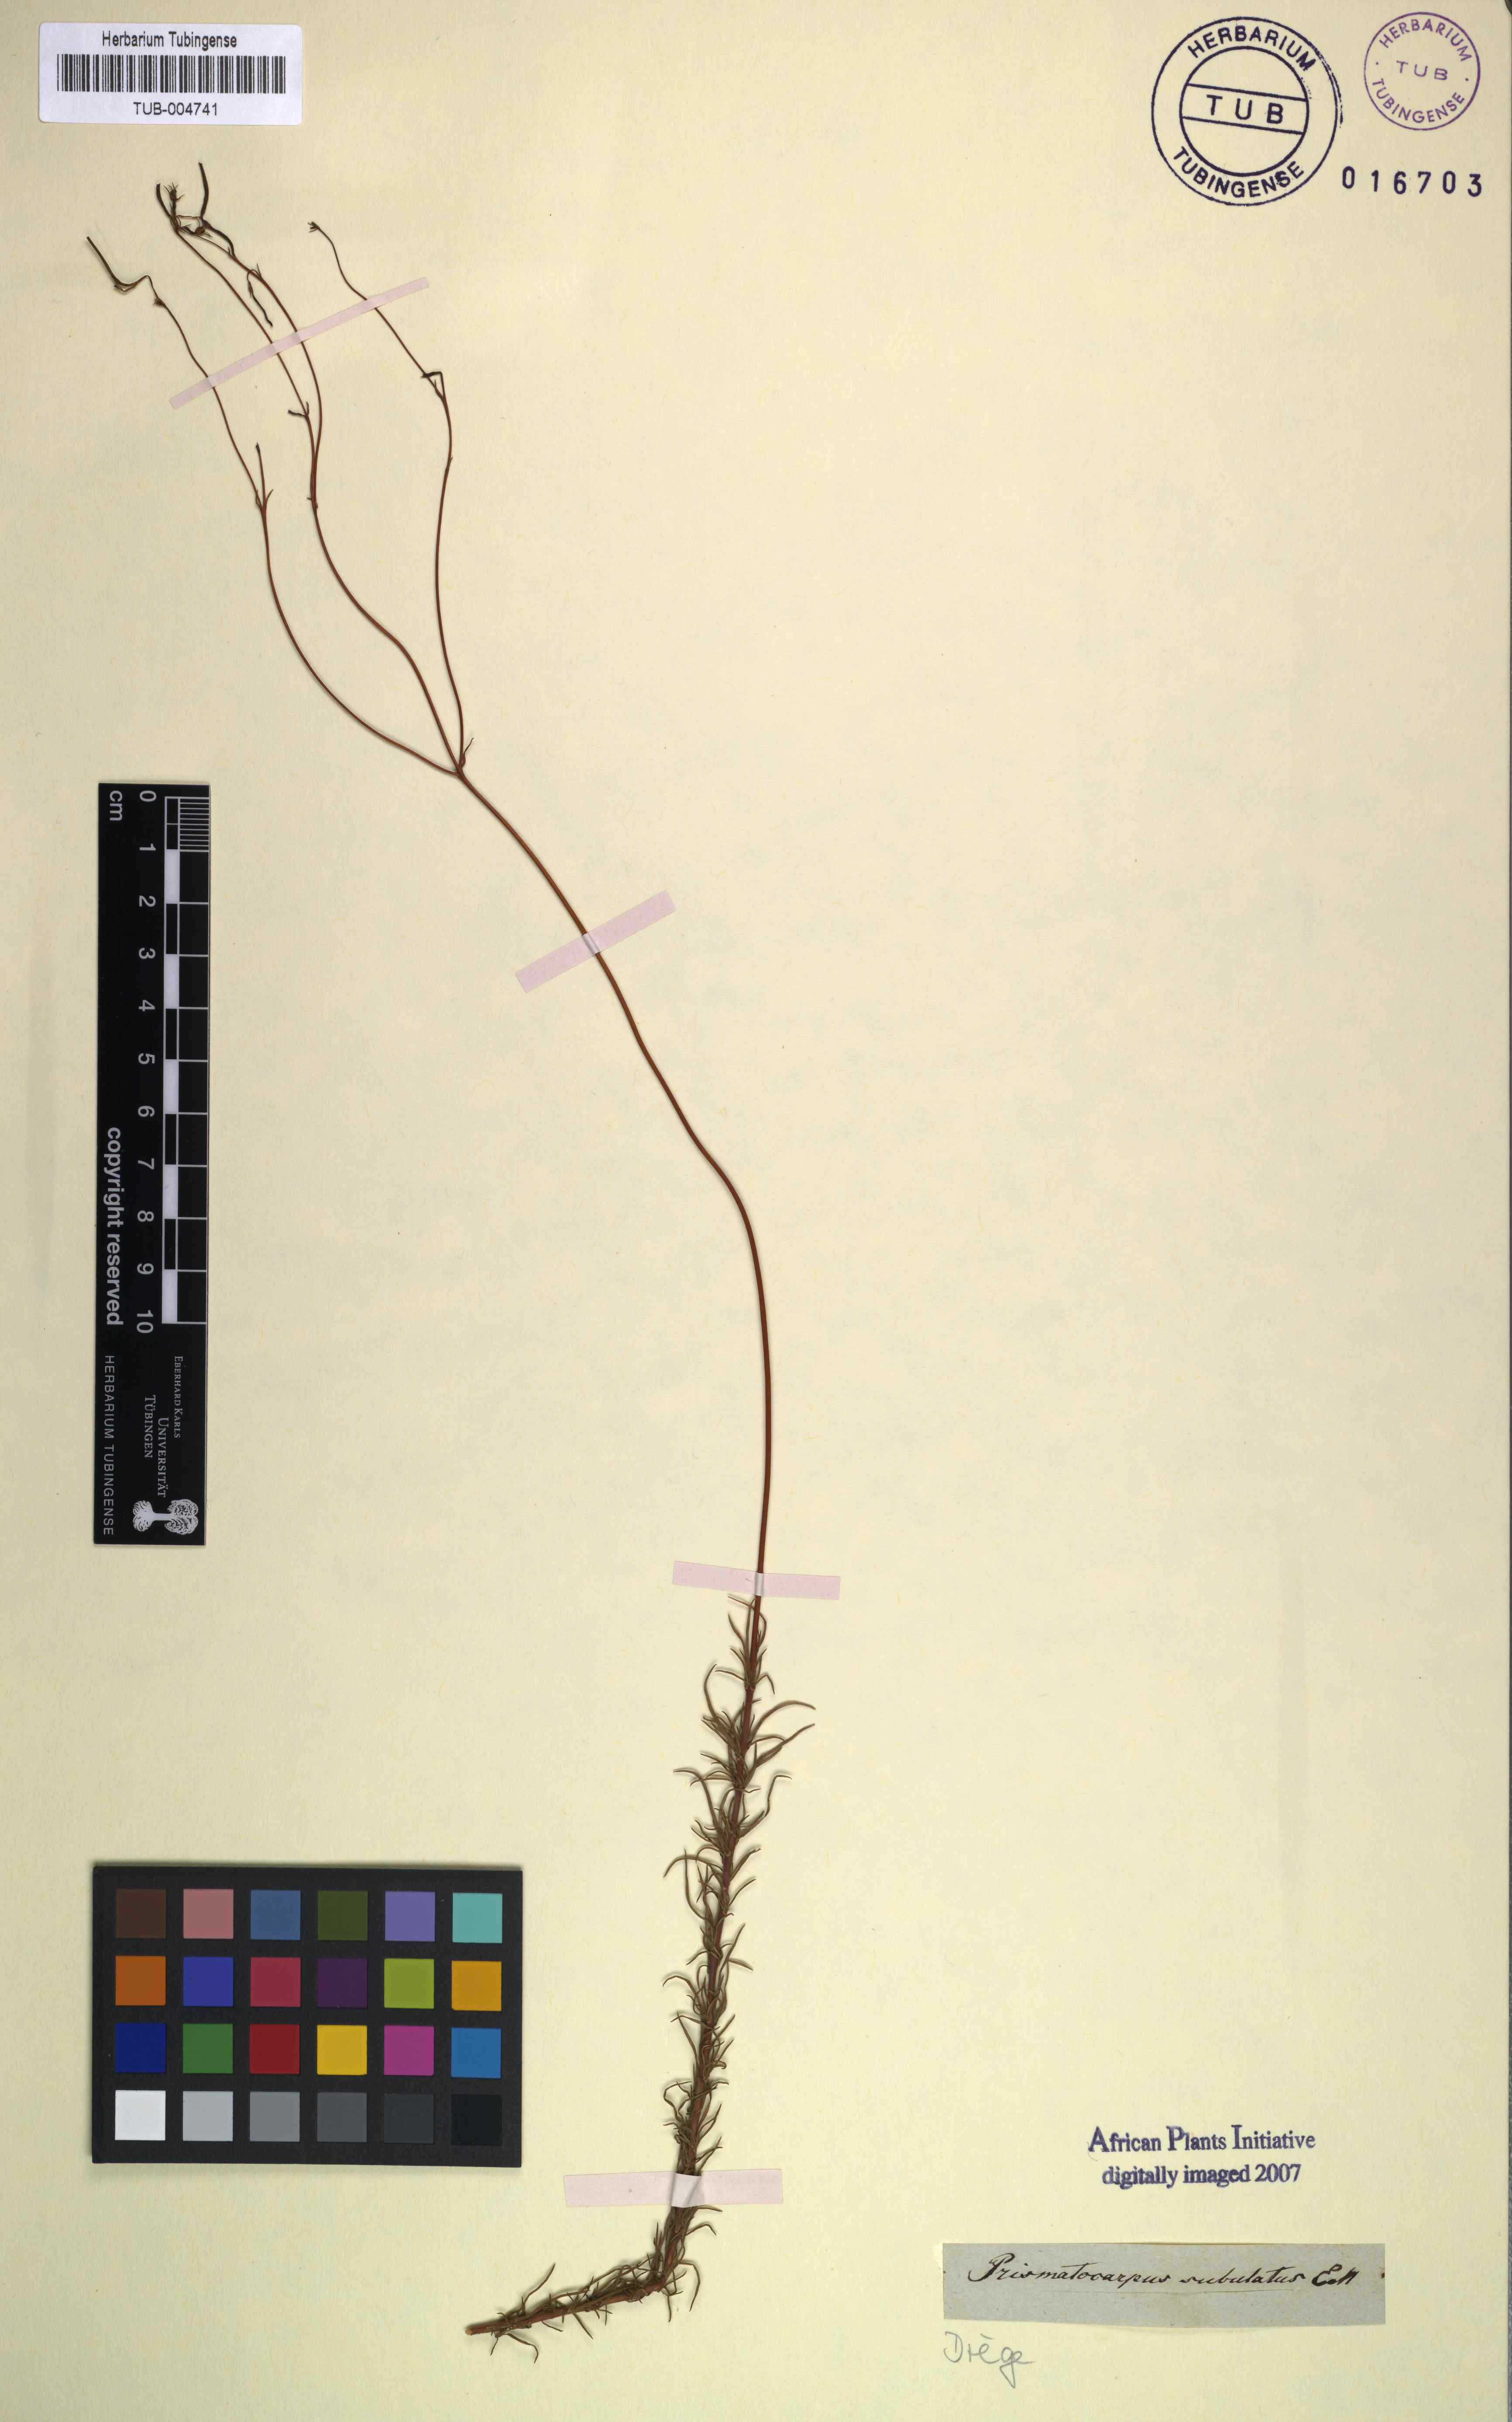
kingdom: Plantae
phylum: Tracheophyta
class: Magnoliopsida
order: Asterales
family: Campanulaceae
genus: Prismatocarpus
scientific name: Prismatocarpus fruticosus
